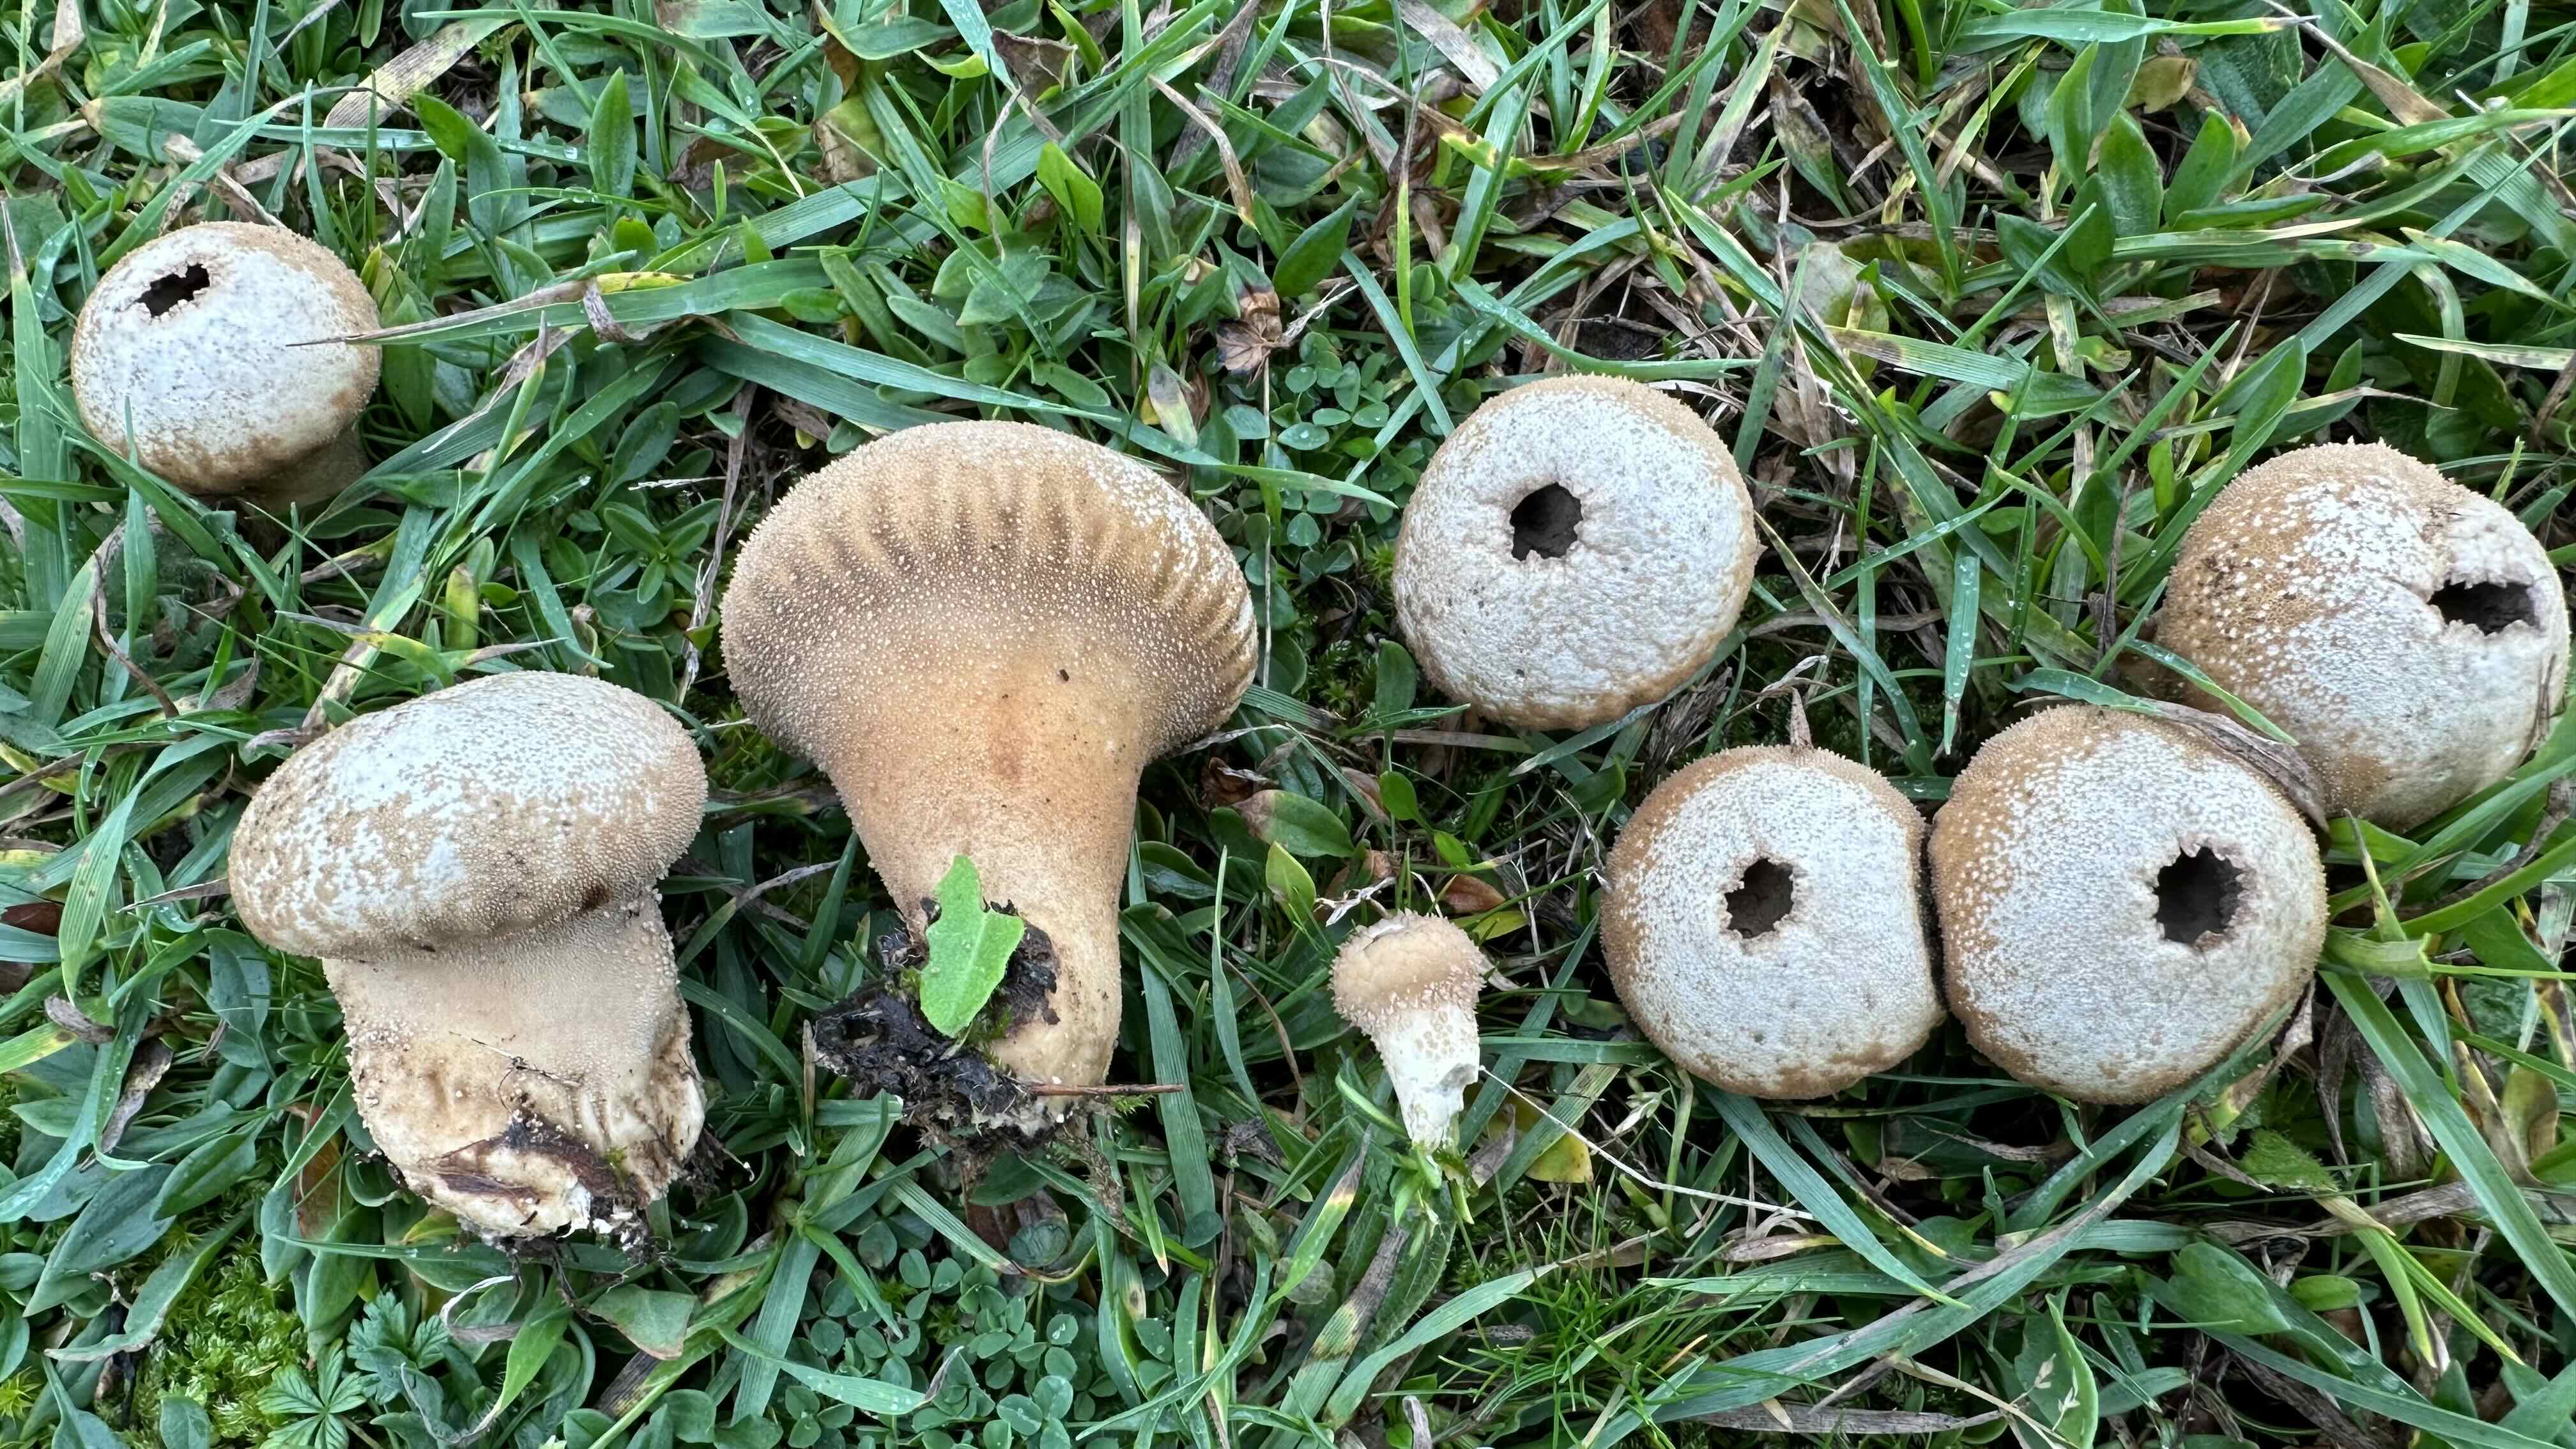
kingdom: Fungi
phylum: Basidiomycota
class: Agaricomycetes
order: Agaricales
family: Lycoperdaceae
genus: Lycoperdon
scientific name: Lycoperdon perlatum
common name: krystal-støvbold
